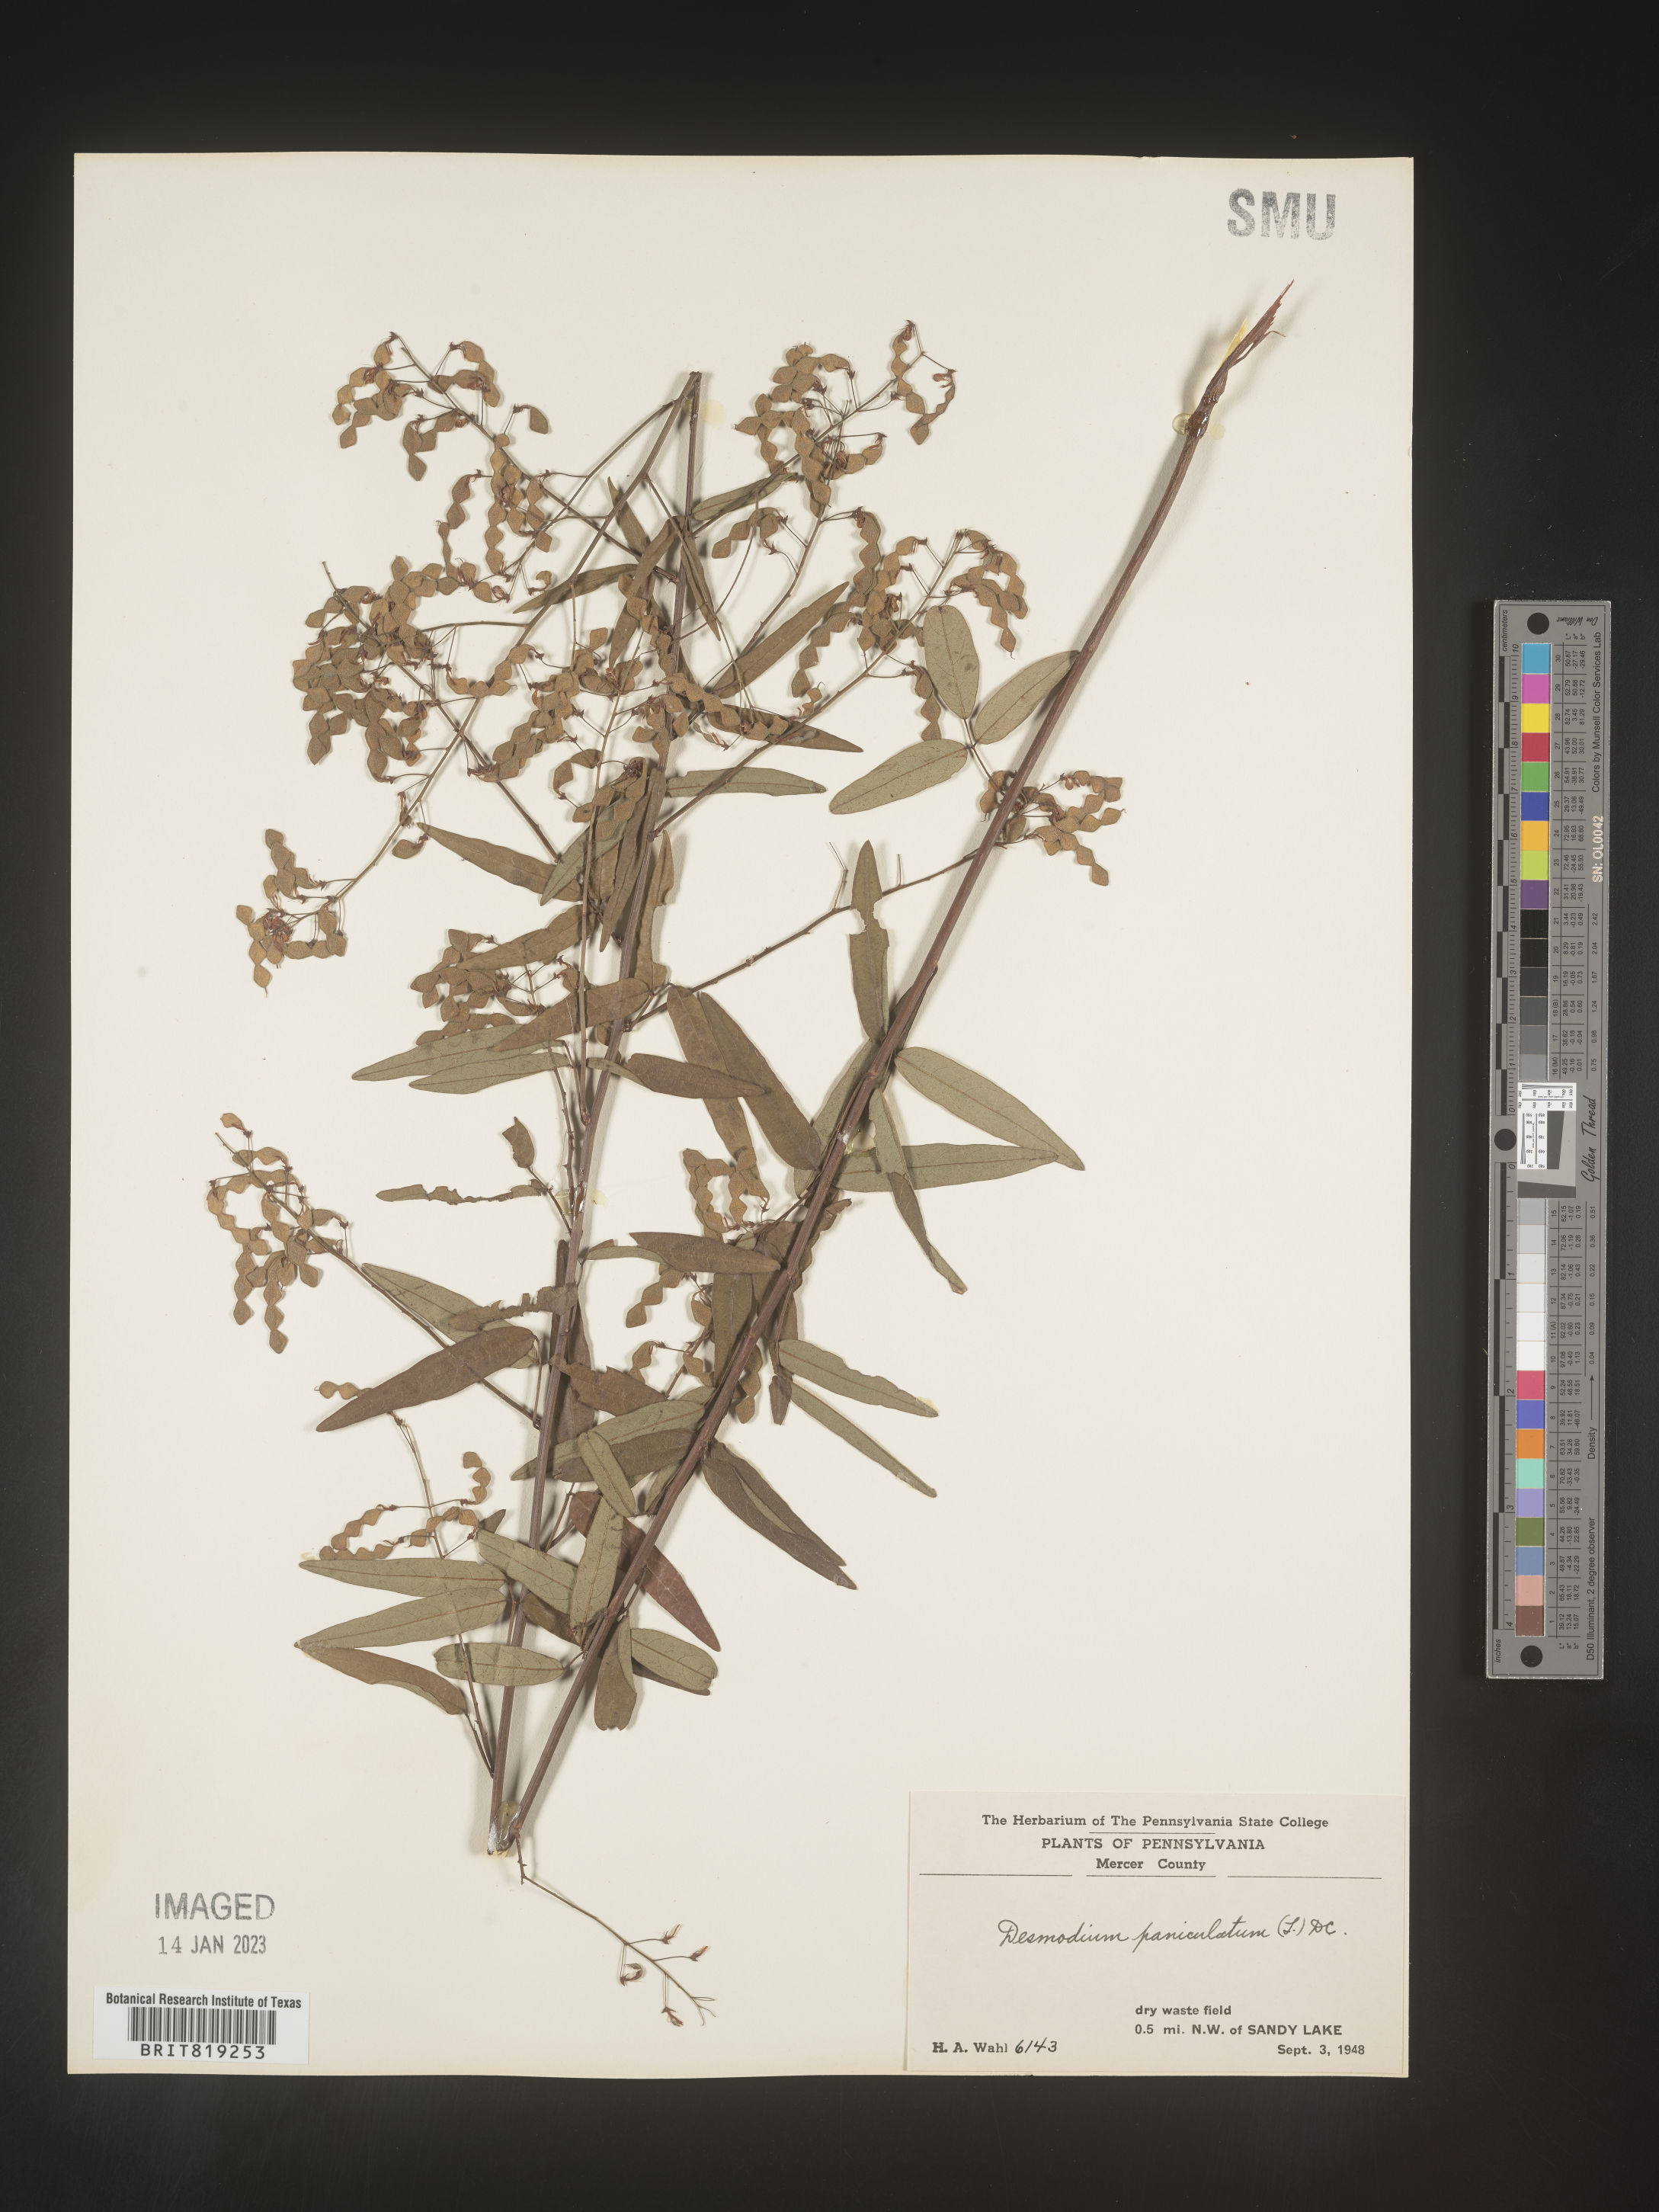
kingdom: Plantae
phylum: Tracheophyta
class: Magnoliopsida
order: Fabales
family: Fabaceae
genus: Desmodium
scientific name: Desmodium paniculatum
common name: Panicled tick-clover
